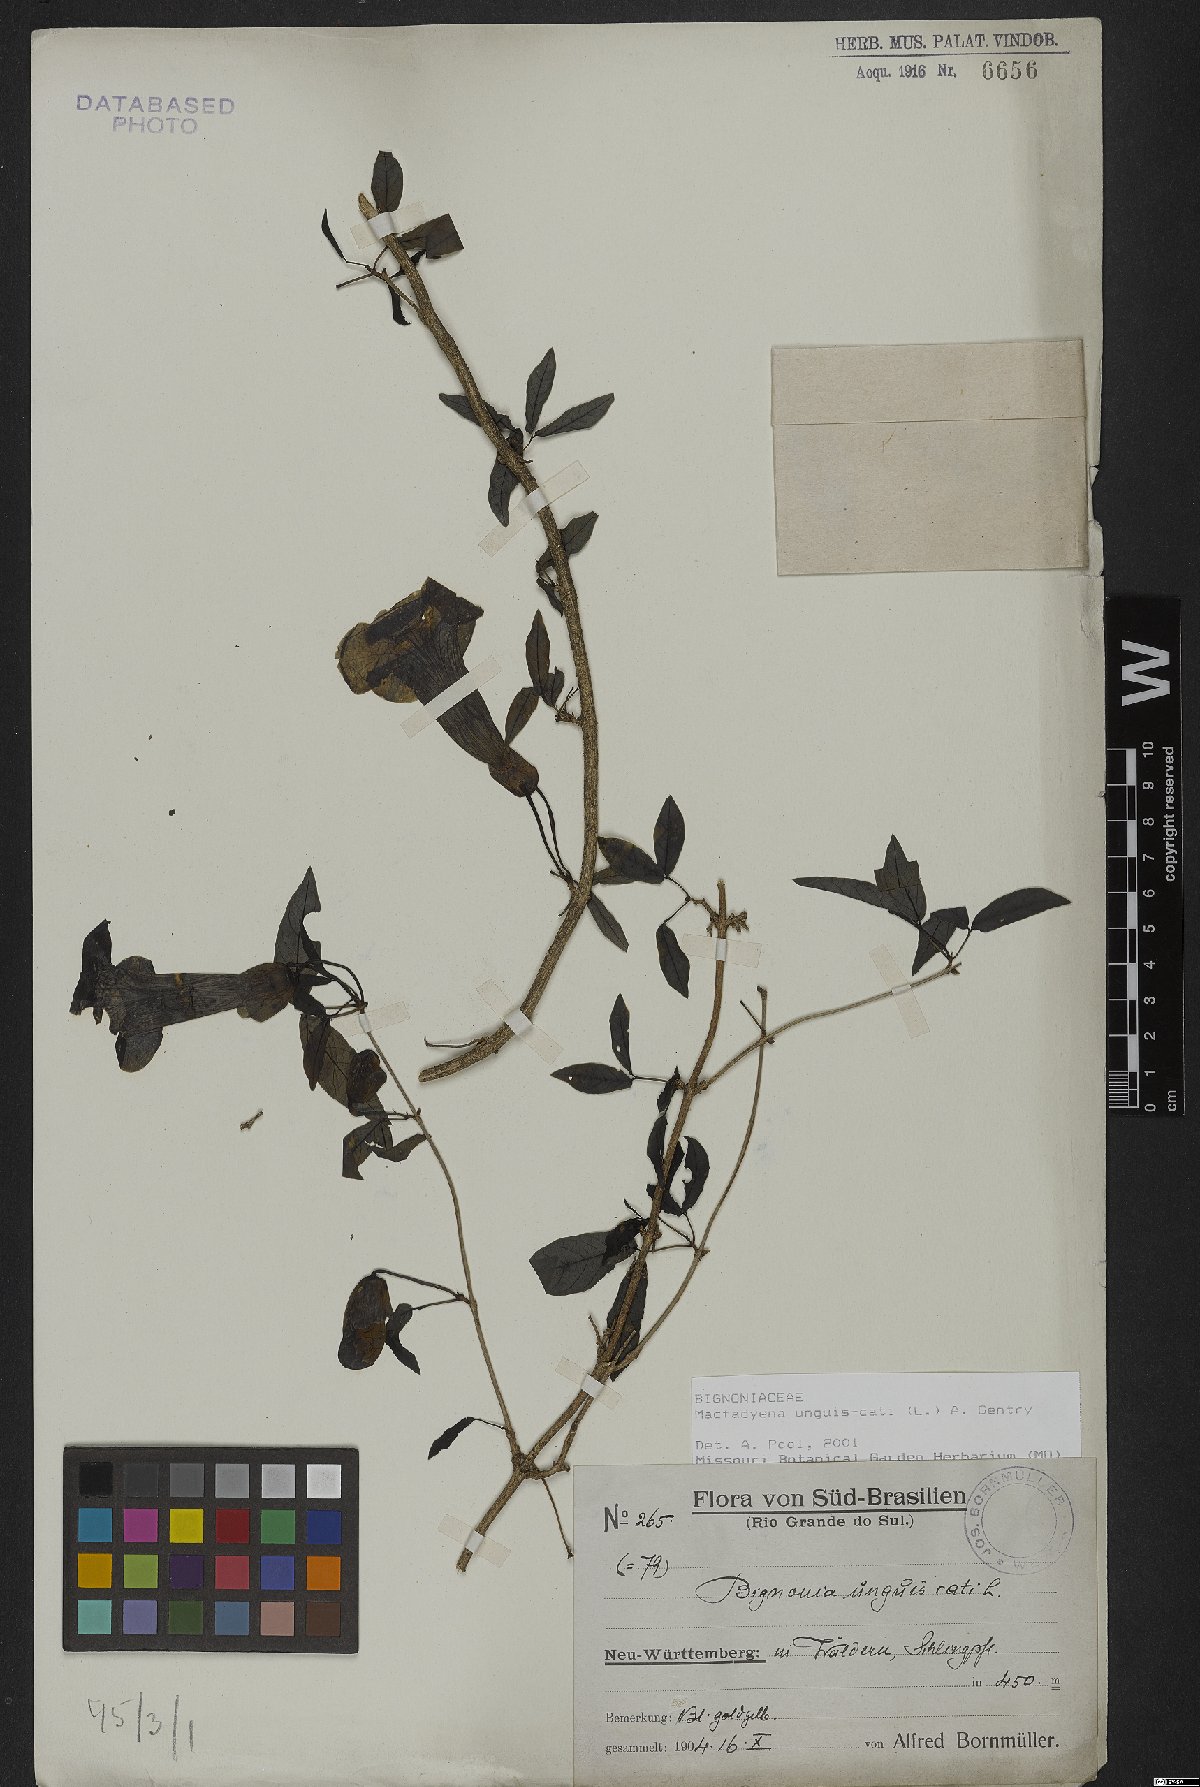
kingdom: Plantae
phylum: Tracheophyta
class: Magnoliopsida
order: Lamiales
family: Bignoniaceae
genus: Dolichandra
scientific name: Dolichandra unguis-cati
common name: Catclaw vine
